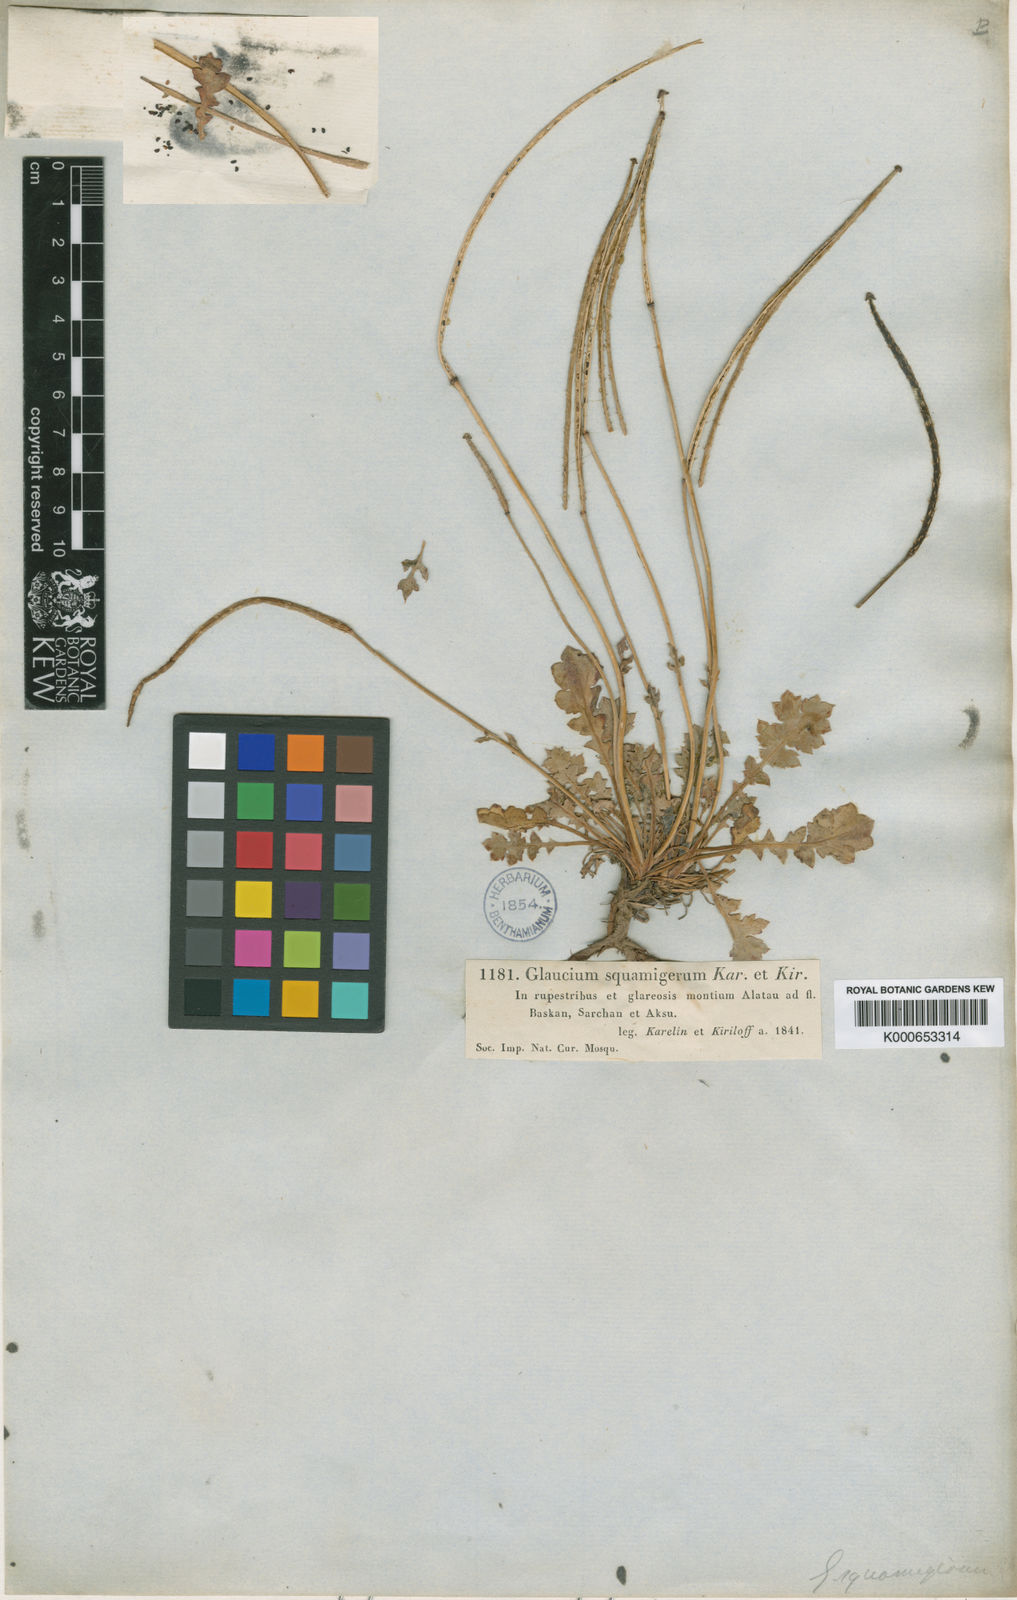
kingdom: Plantae
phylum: Tracheophyta
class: Magnoliopsida
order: Ranunculales
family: Papaveraceae
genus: Glaucium
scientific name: Glaucium squamigerum
